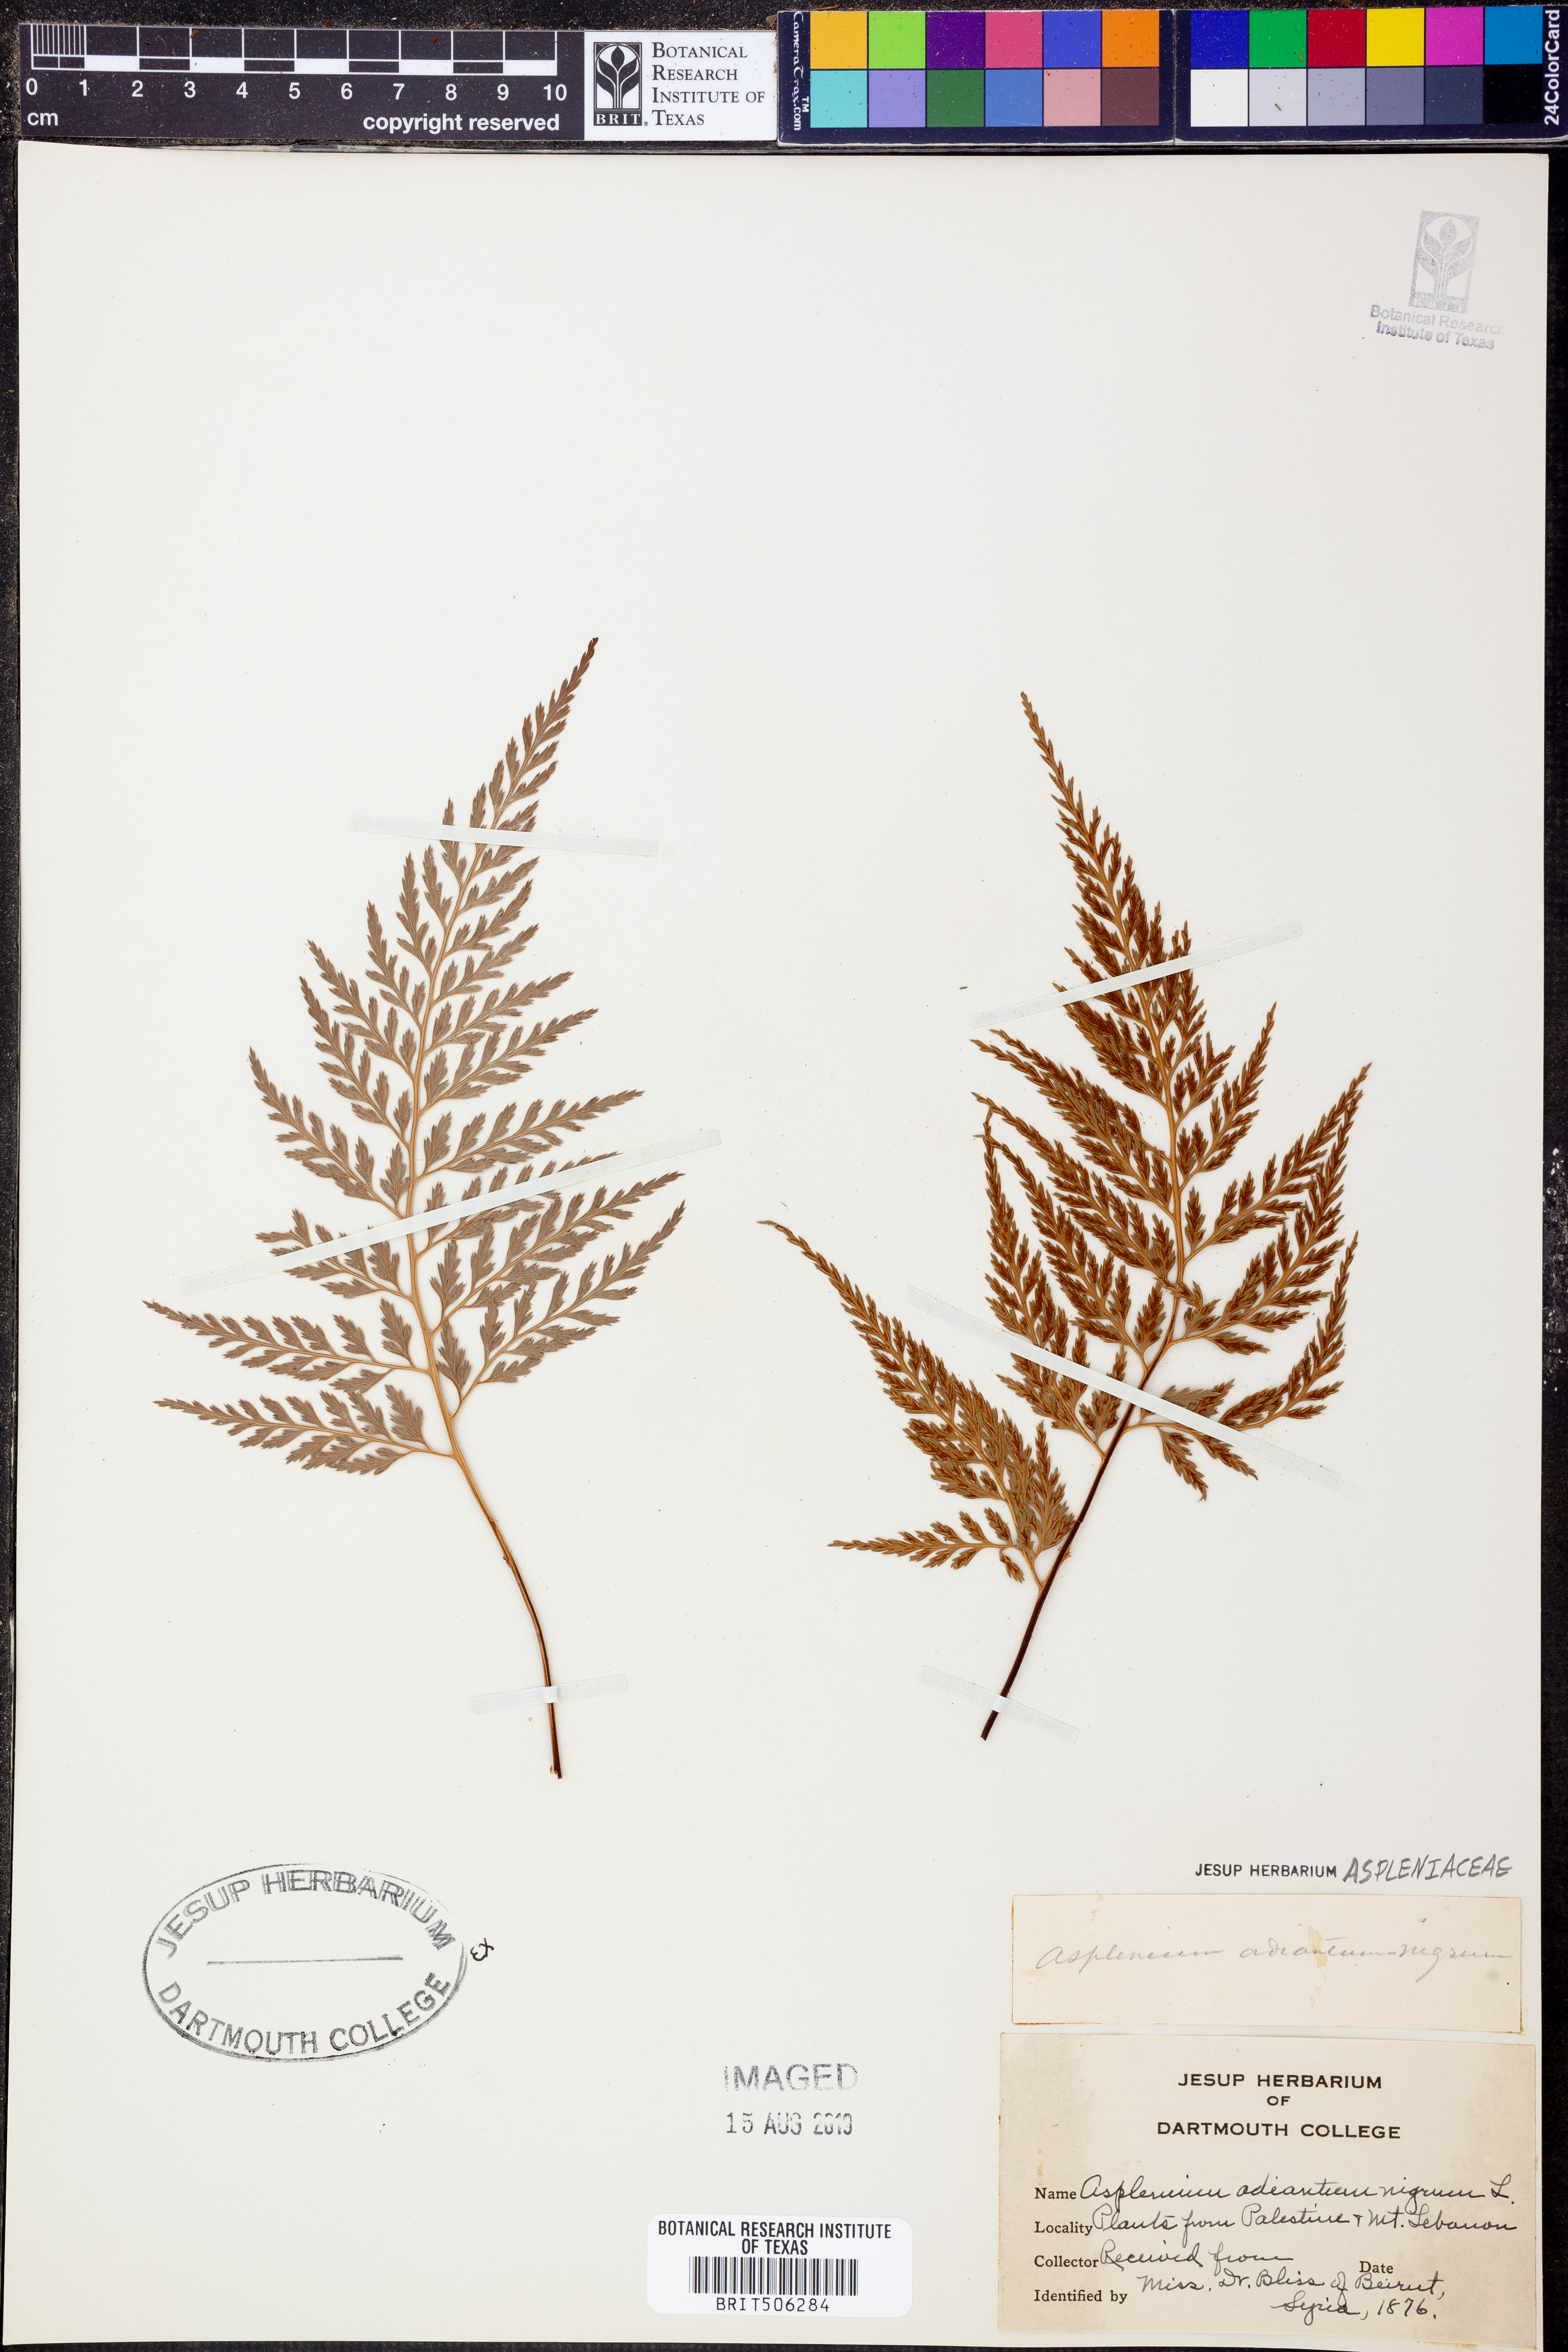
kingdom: Plantae
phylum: Tracheophyta
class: Polypodiopsida
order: Polypodiales
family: Aspleniaceae
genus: Asplenium
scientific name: Asplenium adiantum-nigrum
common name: Black spleenwort
